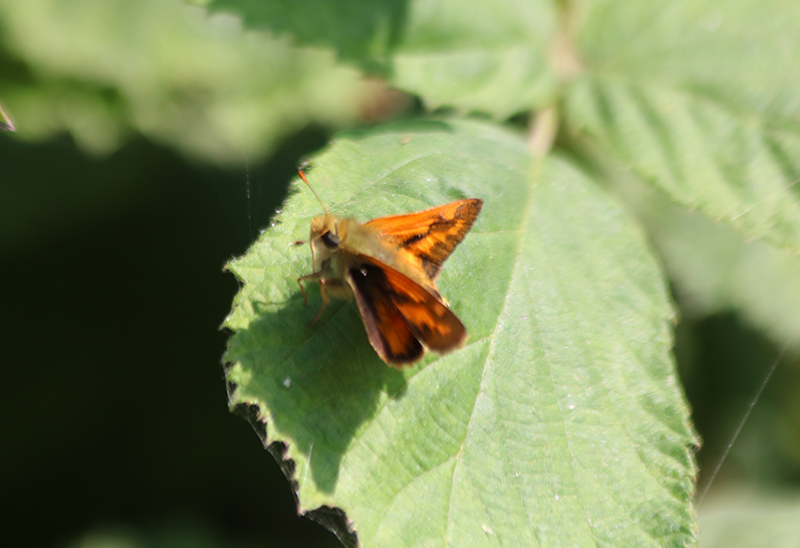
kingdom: Animalia
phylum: Arthropoda
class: Insecta
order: Lepidoptera
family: Hesperiidae
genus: Ochlodes
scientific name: Ochlodes sylvanoides
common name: Woodland Skipper
